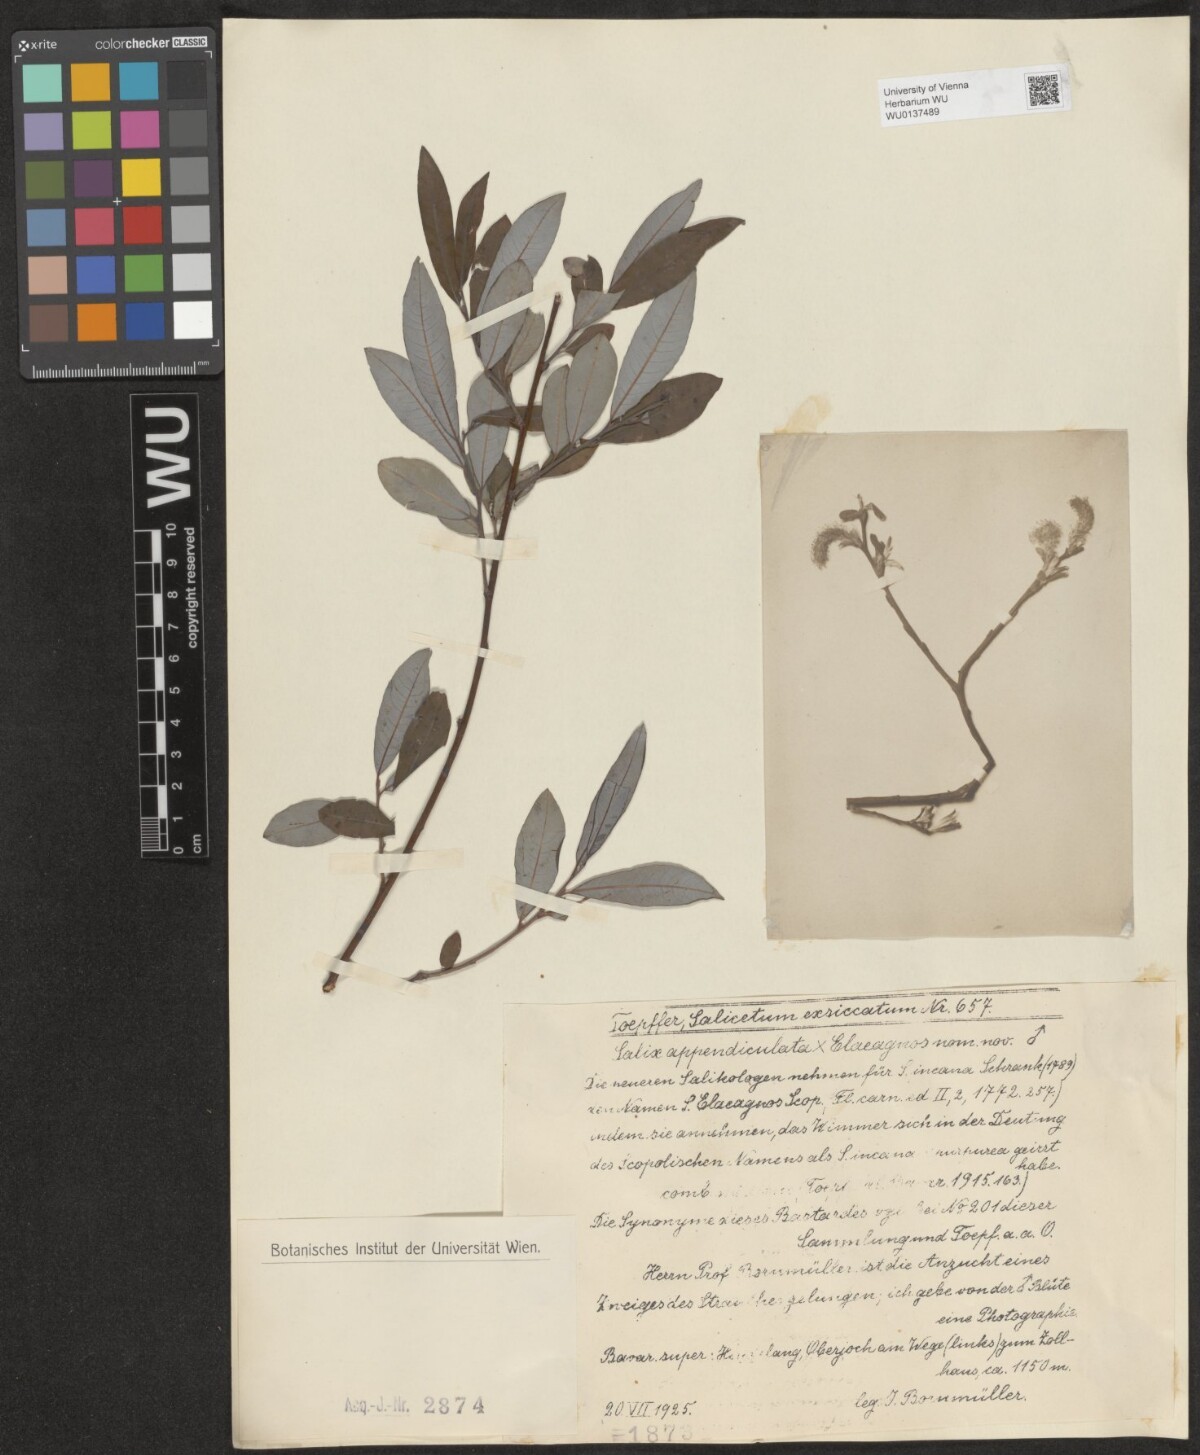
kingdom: Plantae
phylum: Tracheophyta
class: Magnoliopsida
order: Malpighiales
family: Salicaceae
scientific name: Salicaceae
